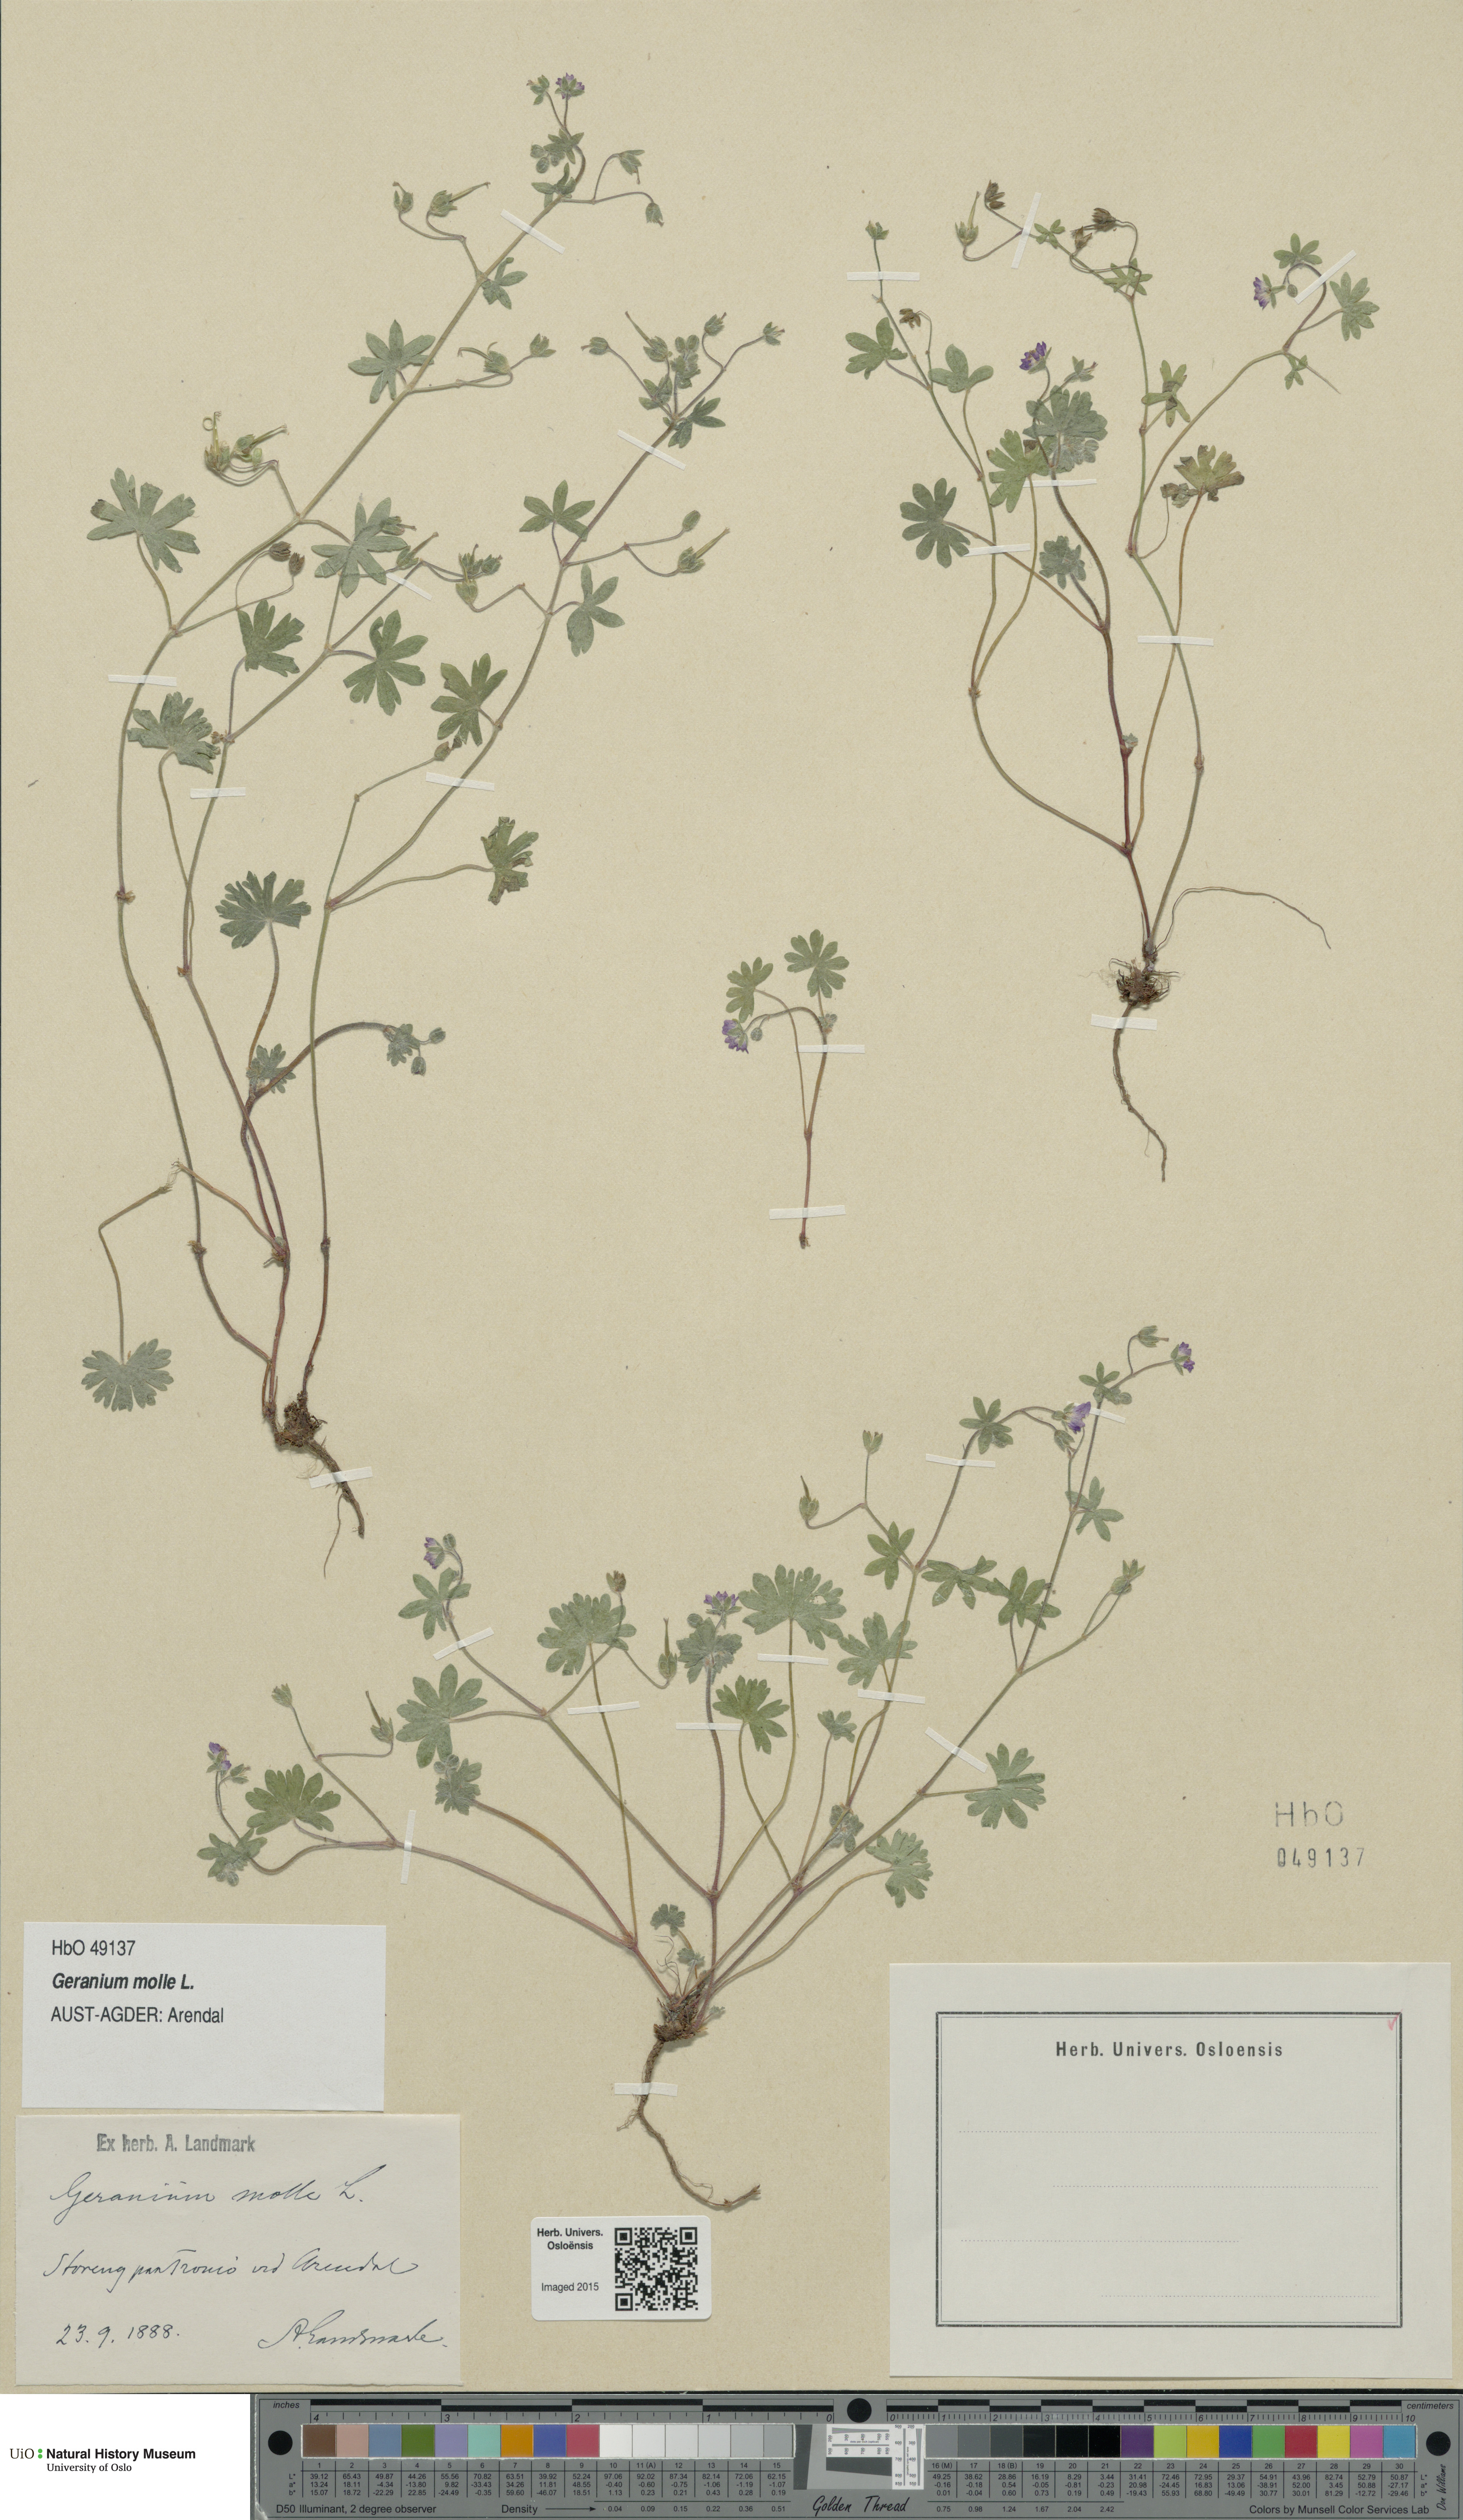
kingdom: Plantae
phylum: Tracheophyta
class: Magnoliopsida
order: Geraniales
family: Geraniaceae
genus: Geranium
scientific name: Geranium molle
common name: Dove's-foot crane's-bill
